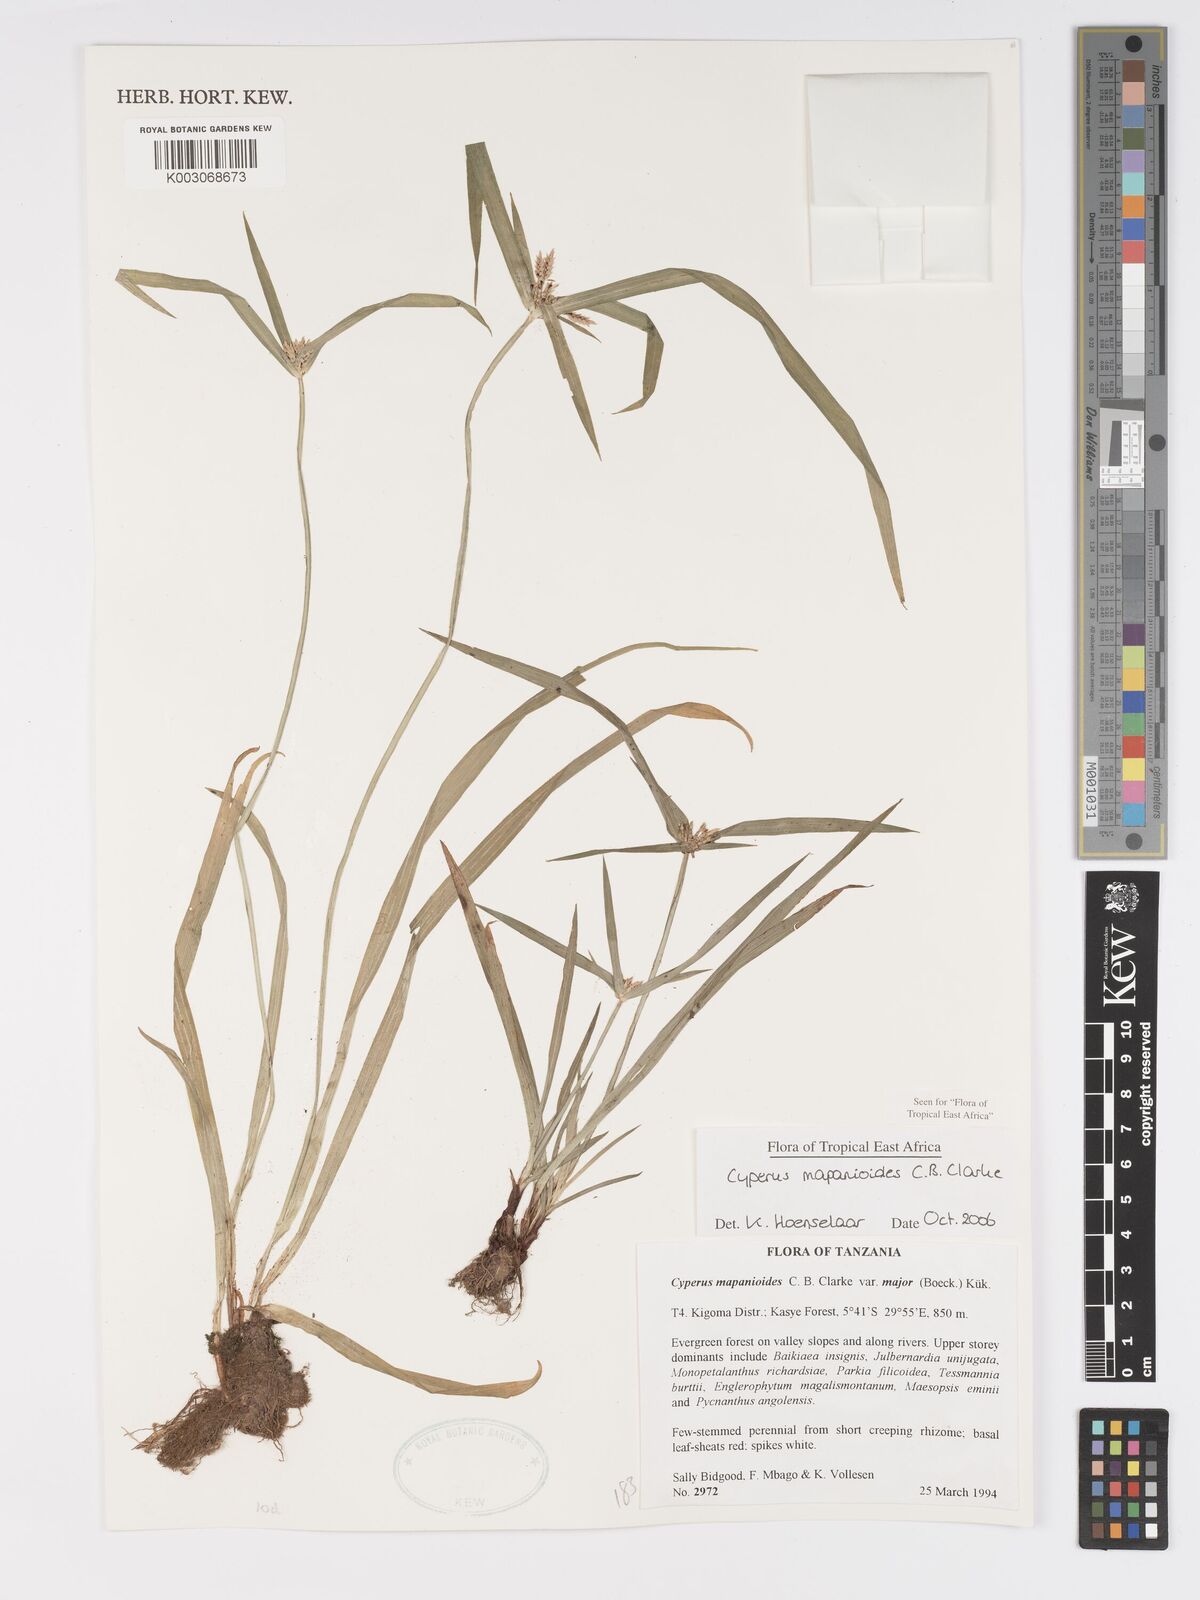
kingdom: Plantae
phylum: Tracheophyta
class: Liliopsida
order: Poales
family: Cyperaceae
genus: Cyperus
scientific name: Cyperus mapanioides
